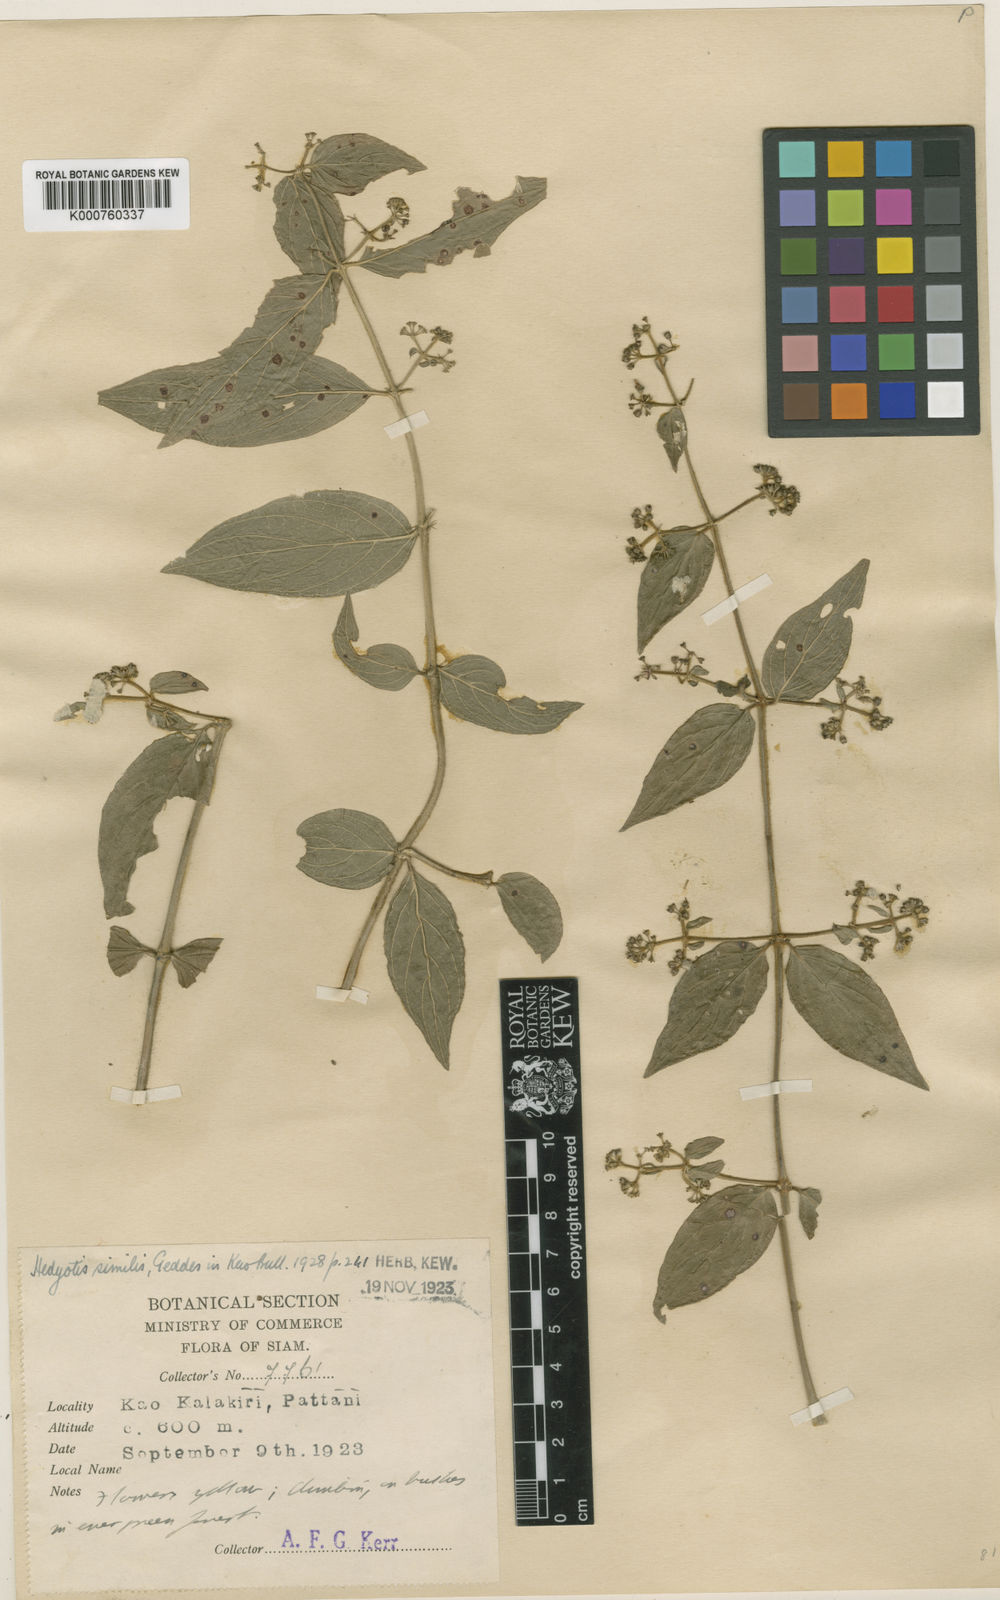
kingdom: Plantae
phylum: Tracheophyta
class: Magnoliopsida
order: Gentianales
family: Rubiaceae
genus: Hedyotis
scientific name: Hedyotis similis
